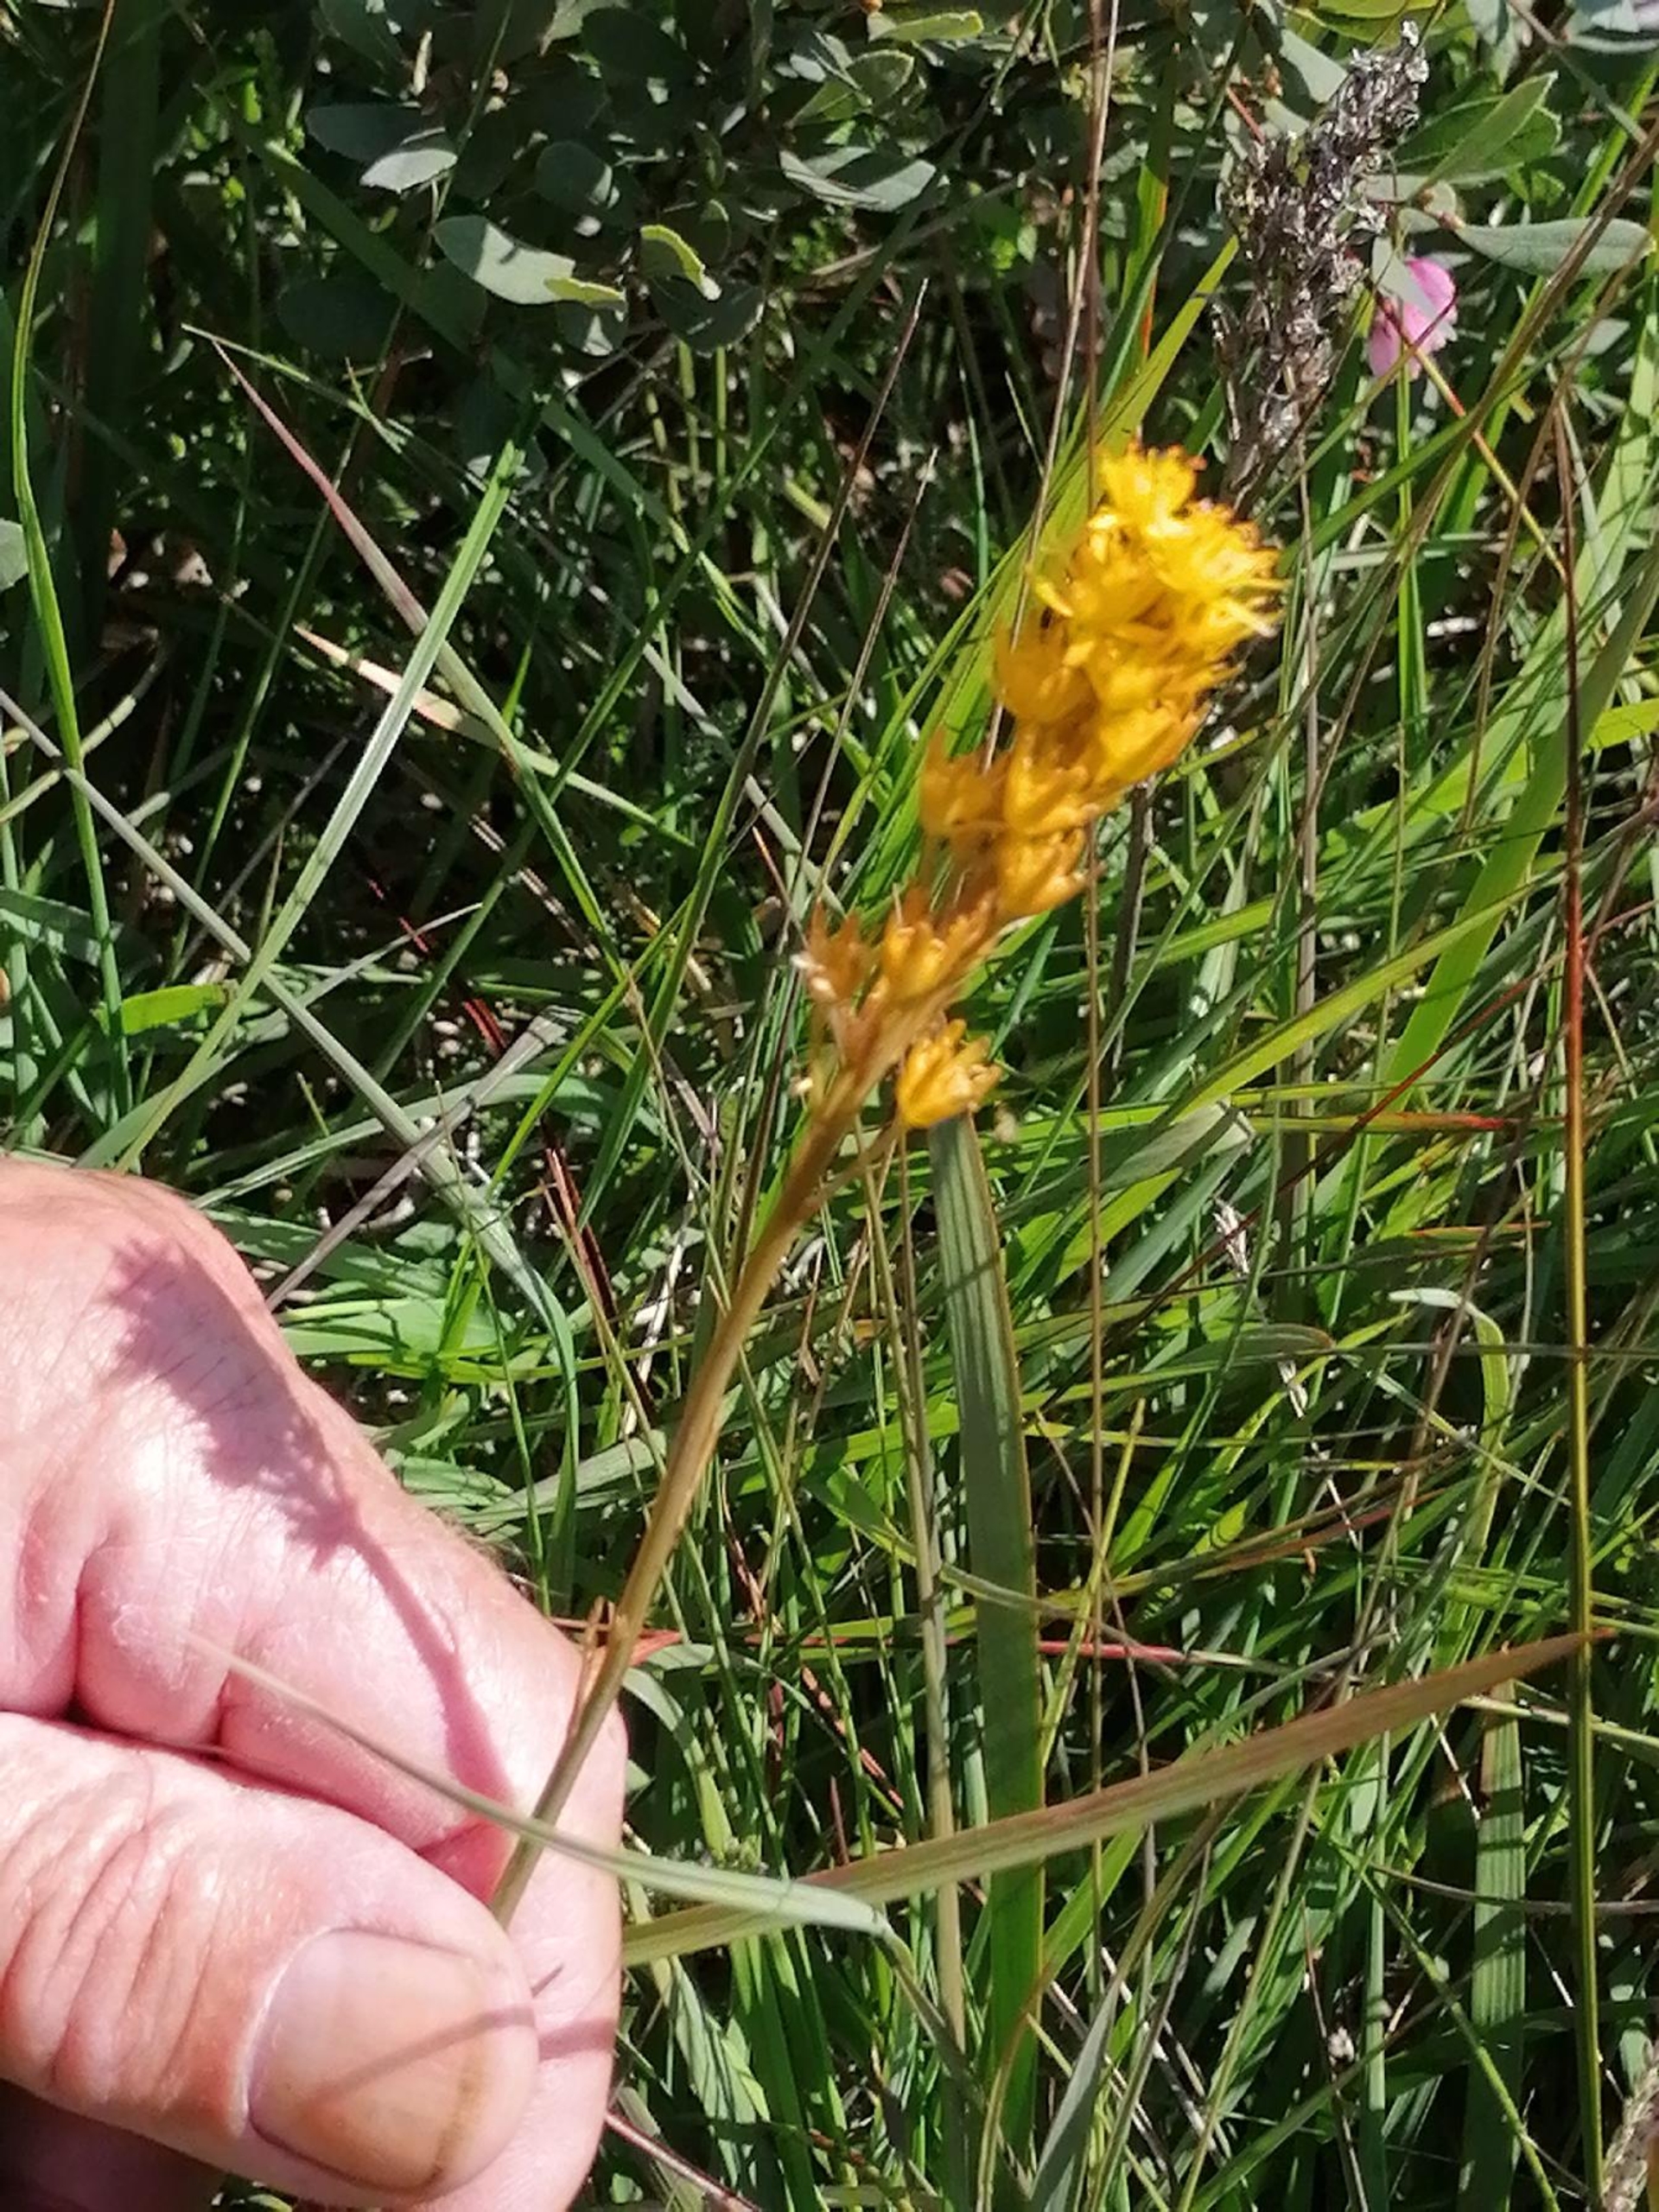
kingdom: Plantae
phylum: Tracheophyta
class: Liliopsida
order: Dioscoreales
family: Nartheciaceae
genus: Narthecium
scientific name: Narthecium ossifragum
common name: Benbræk
